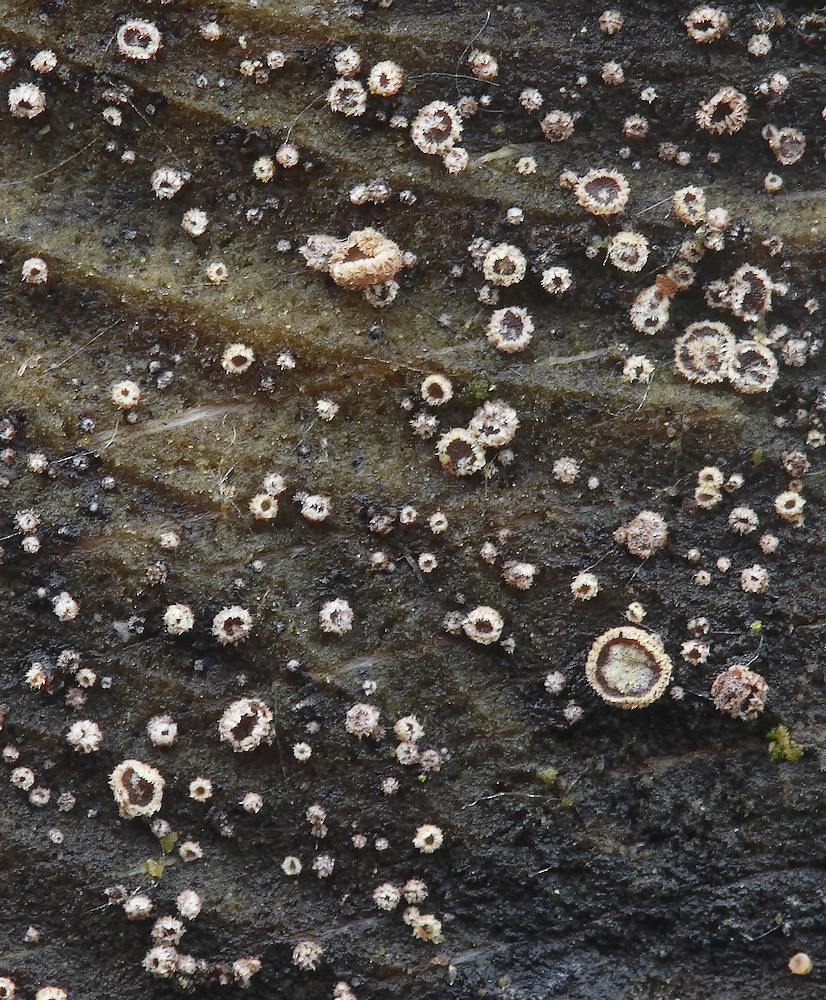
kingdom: Fungi
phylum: Ascomycota
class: Leotiomycetes
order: Helotiales
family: Lachnaceae
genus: Trichopeziza
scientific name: Trichopeziza subsulphurea
